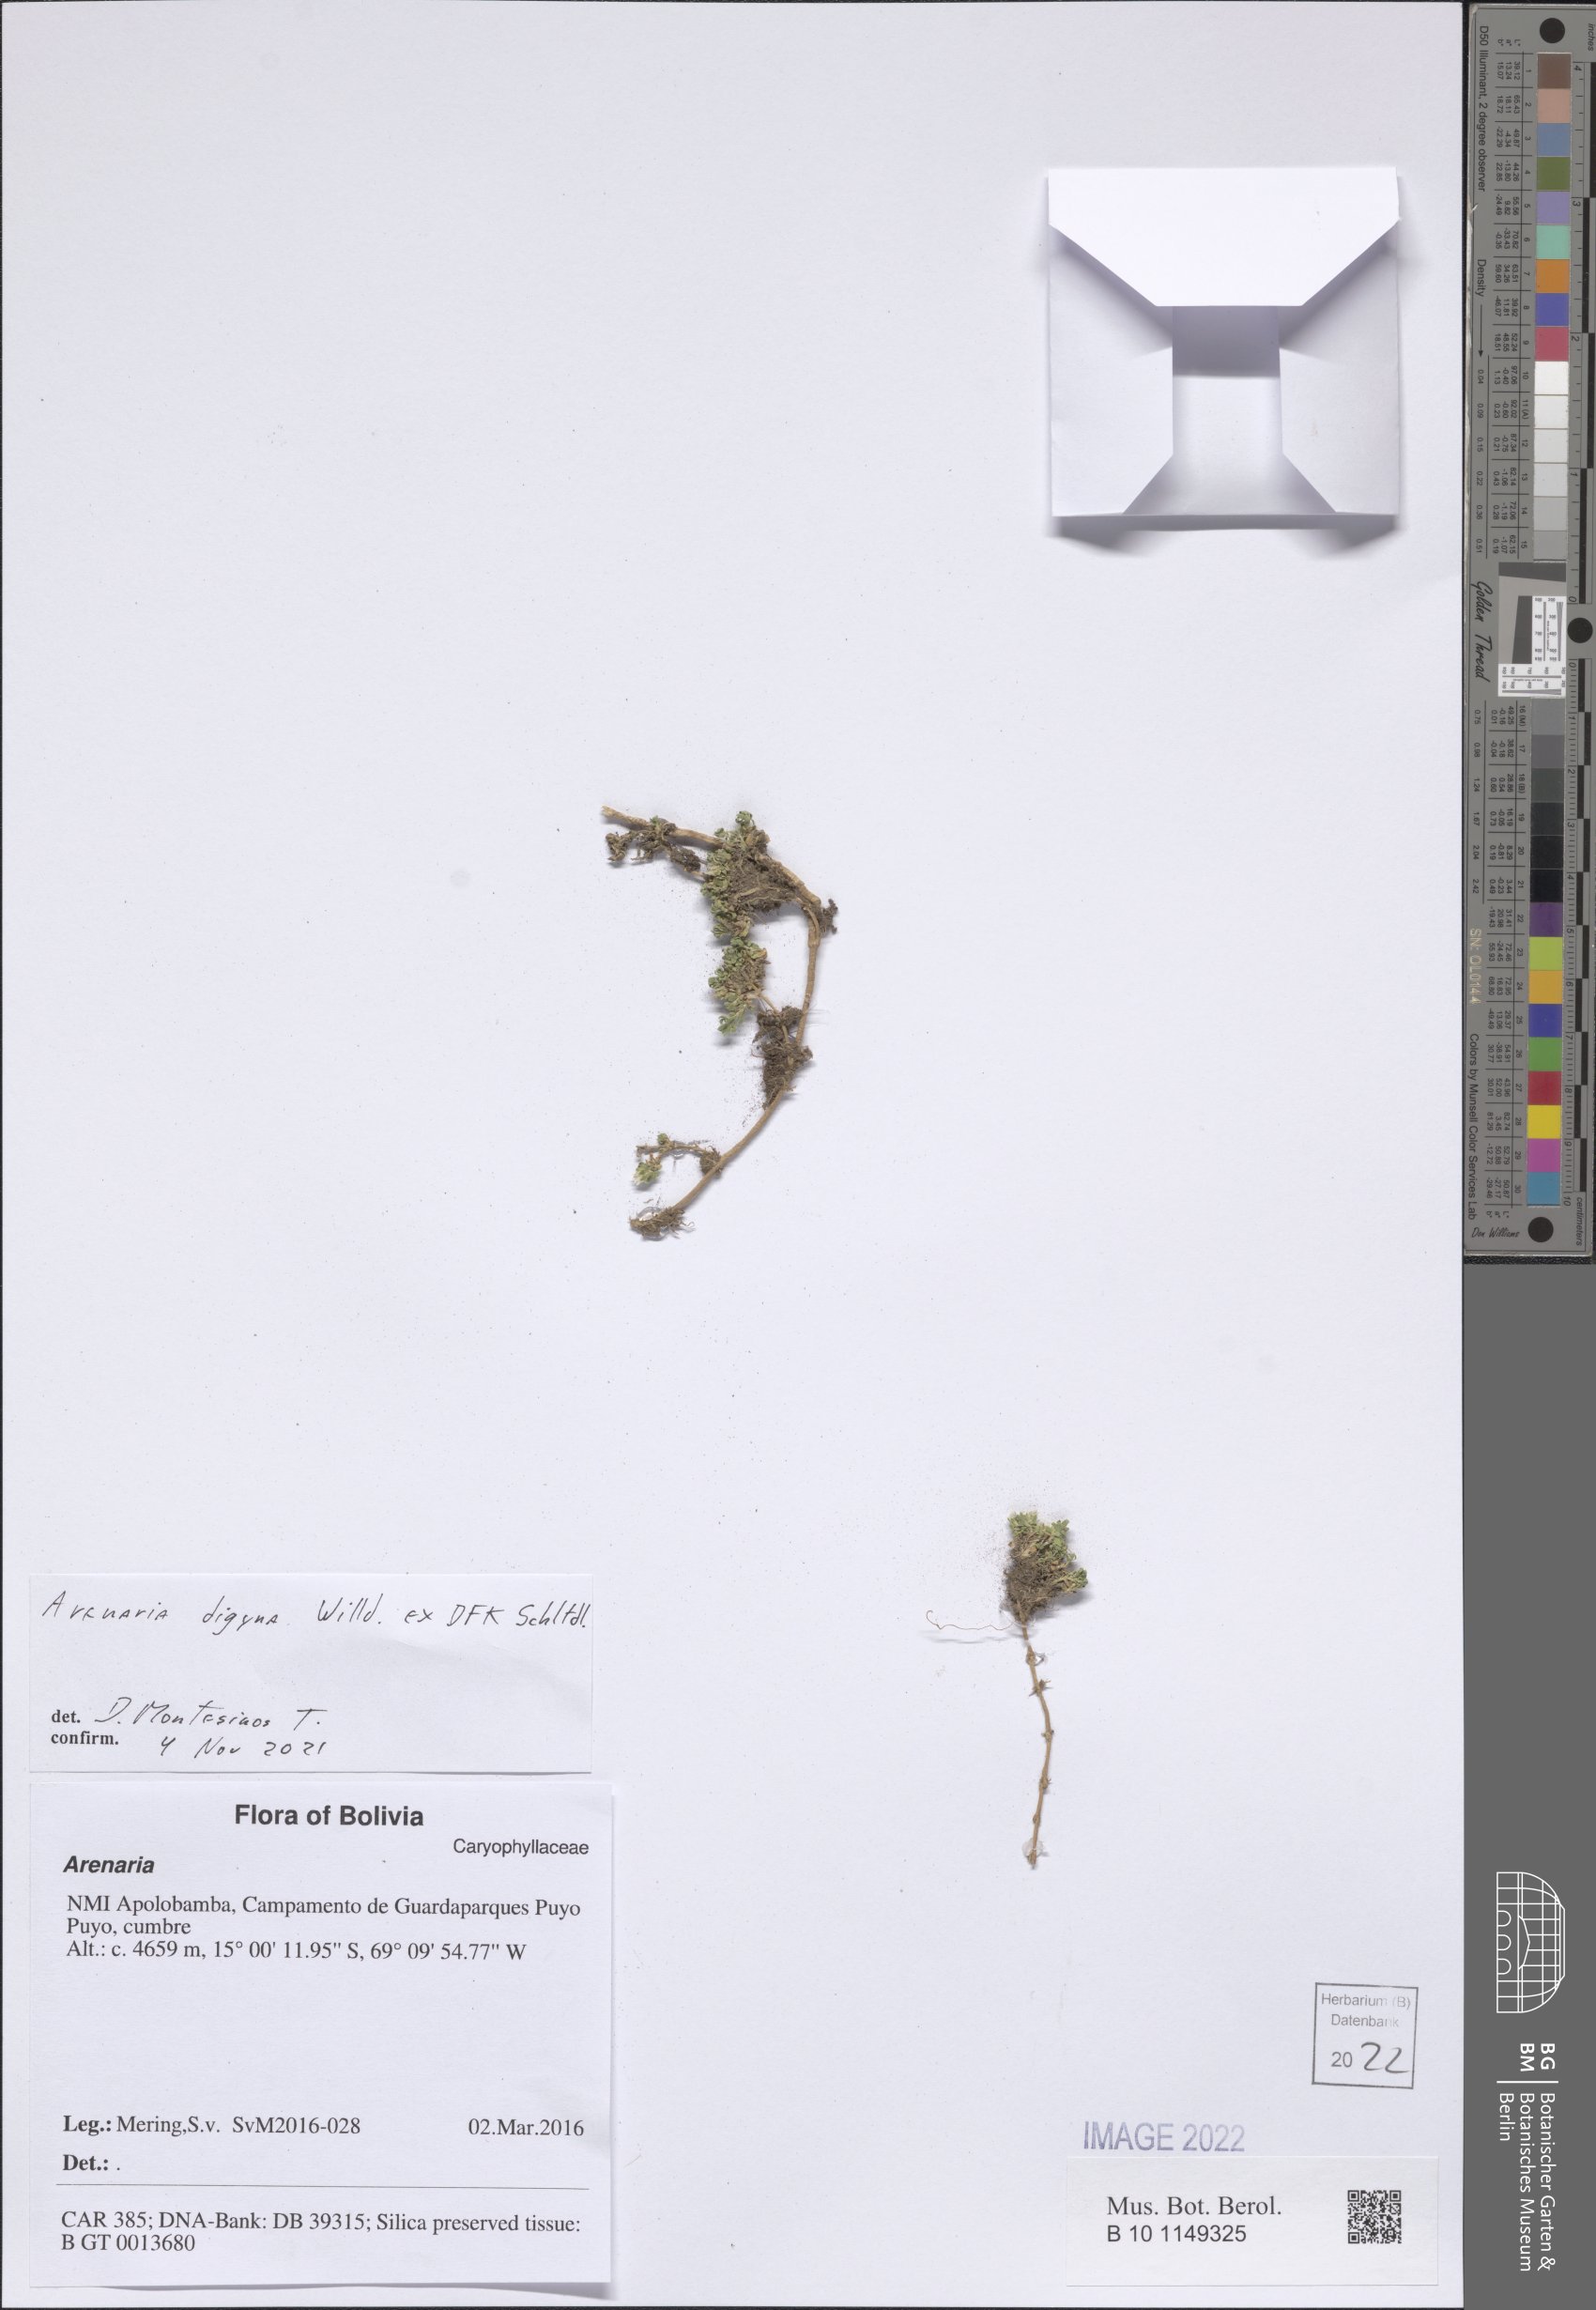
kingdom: Plantae
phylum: Tracheophyta
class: Magnoliopsida
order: Caryophyllales
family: Caryophyllaceae
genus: Arenaria
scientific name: Arenaria digyna
